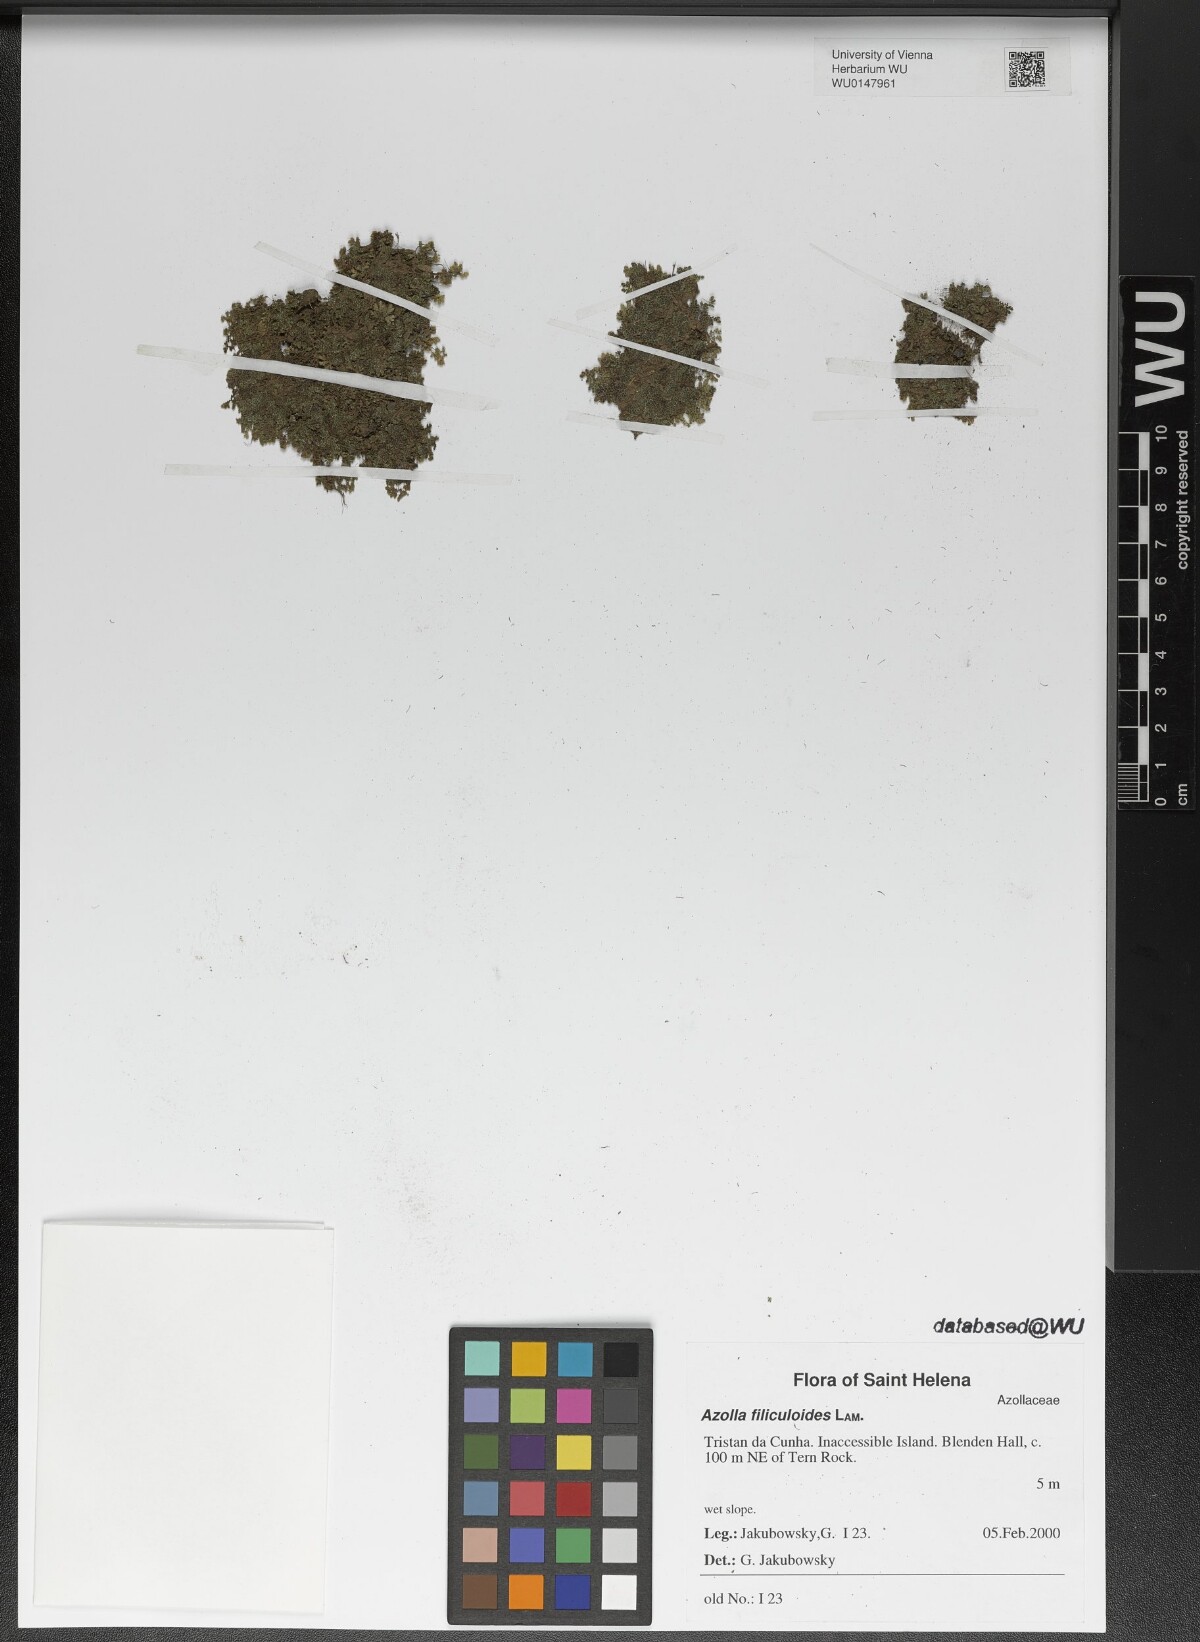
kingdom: Plantae
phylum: Tracheophyta
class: Polypodiopsida
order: Salviniales
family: Salviniaceae
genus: Azolla
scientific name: Azolla filiculoides
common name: Water fern
